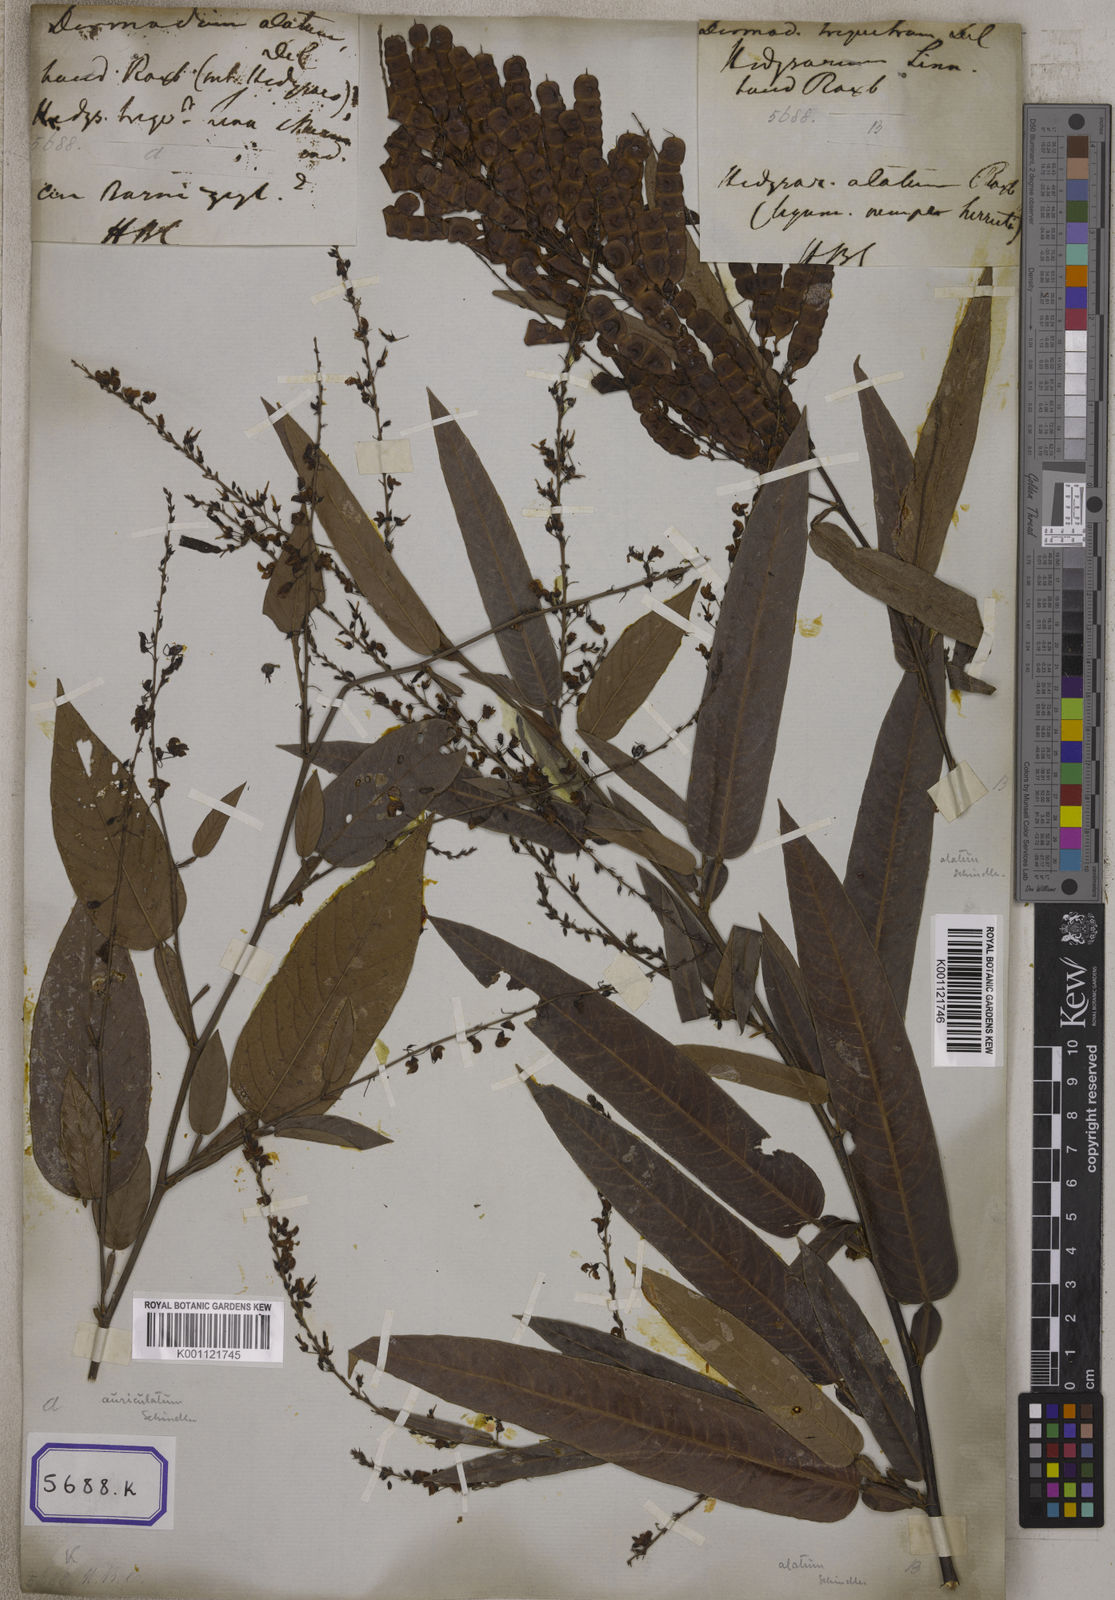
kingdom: Plantae
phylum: Tracheophyta
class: Magnoliopsida
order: Fabales
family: Fabaceae
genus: Tadehagi
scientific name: Tadehagi triquetrum
